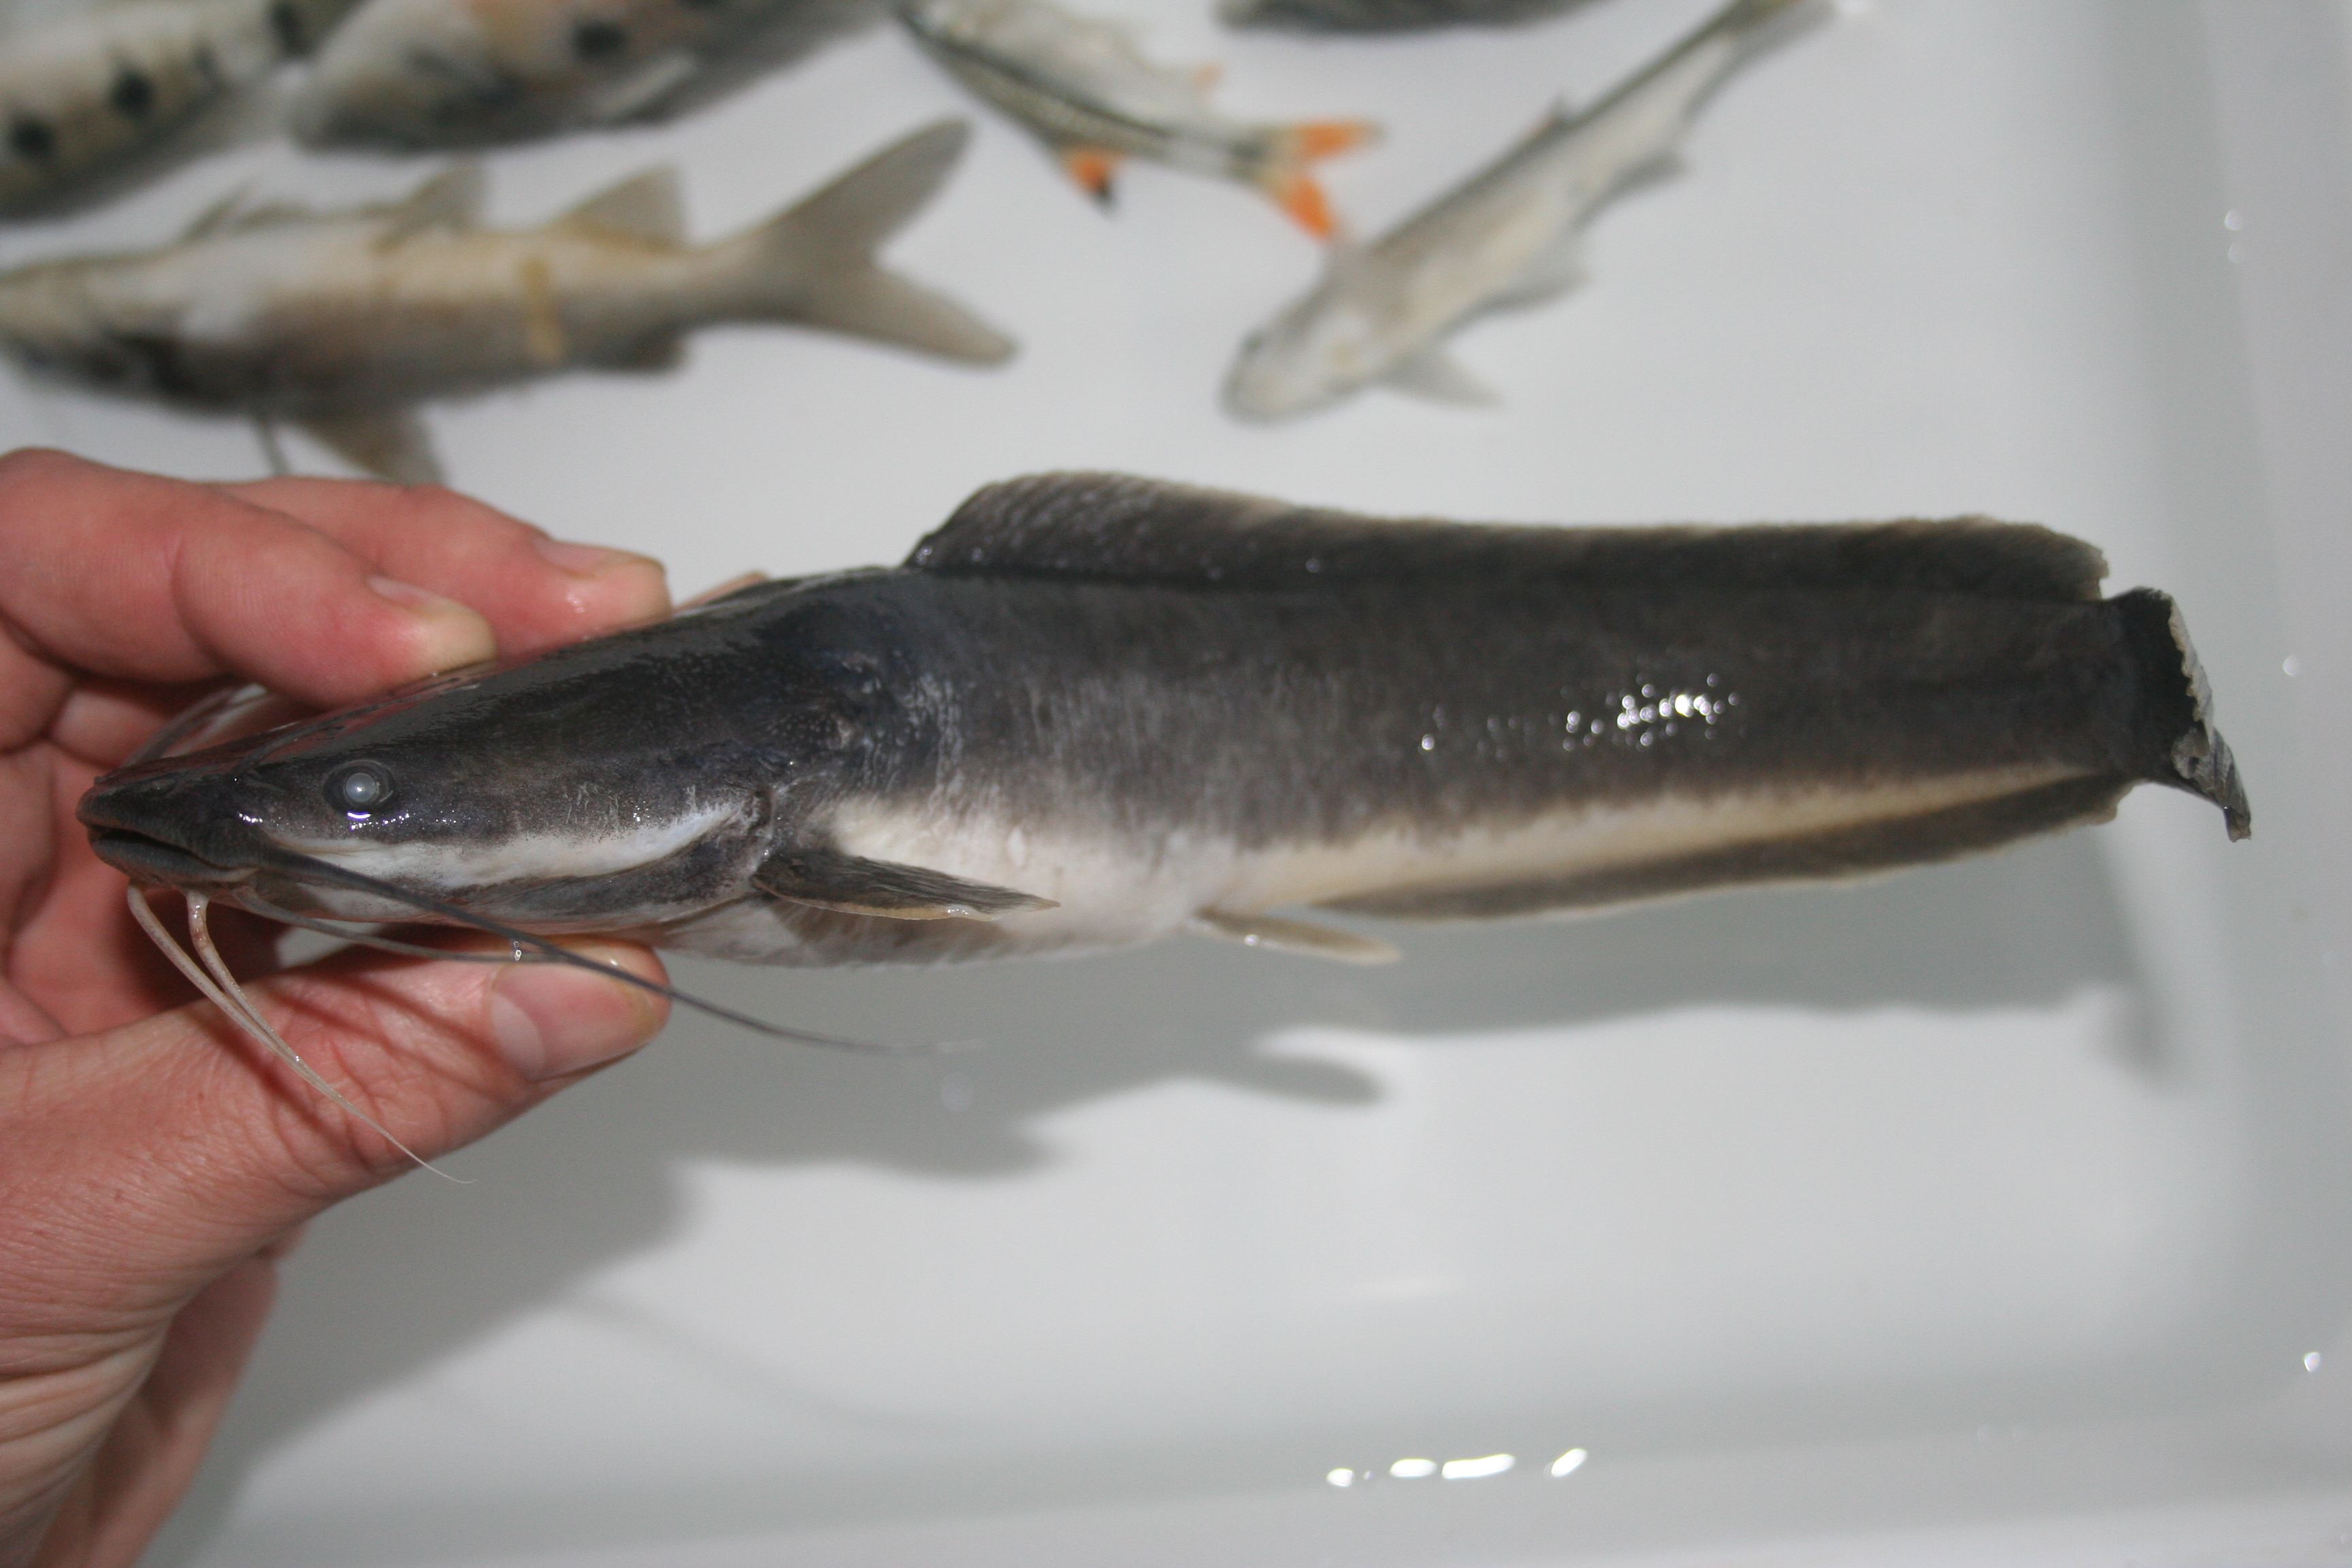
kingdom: Animalia
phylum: Chordata
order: Siluriformes
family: Clariidae
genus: Clarias
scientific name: Clarias gariepinus
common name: African catfish
